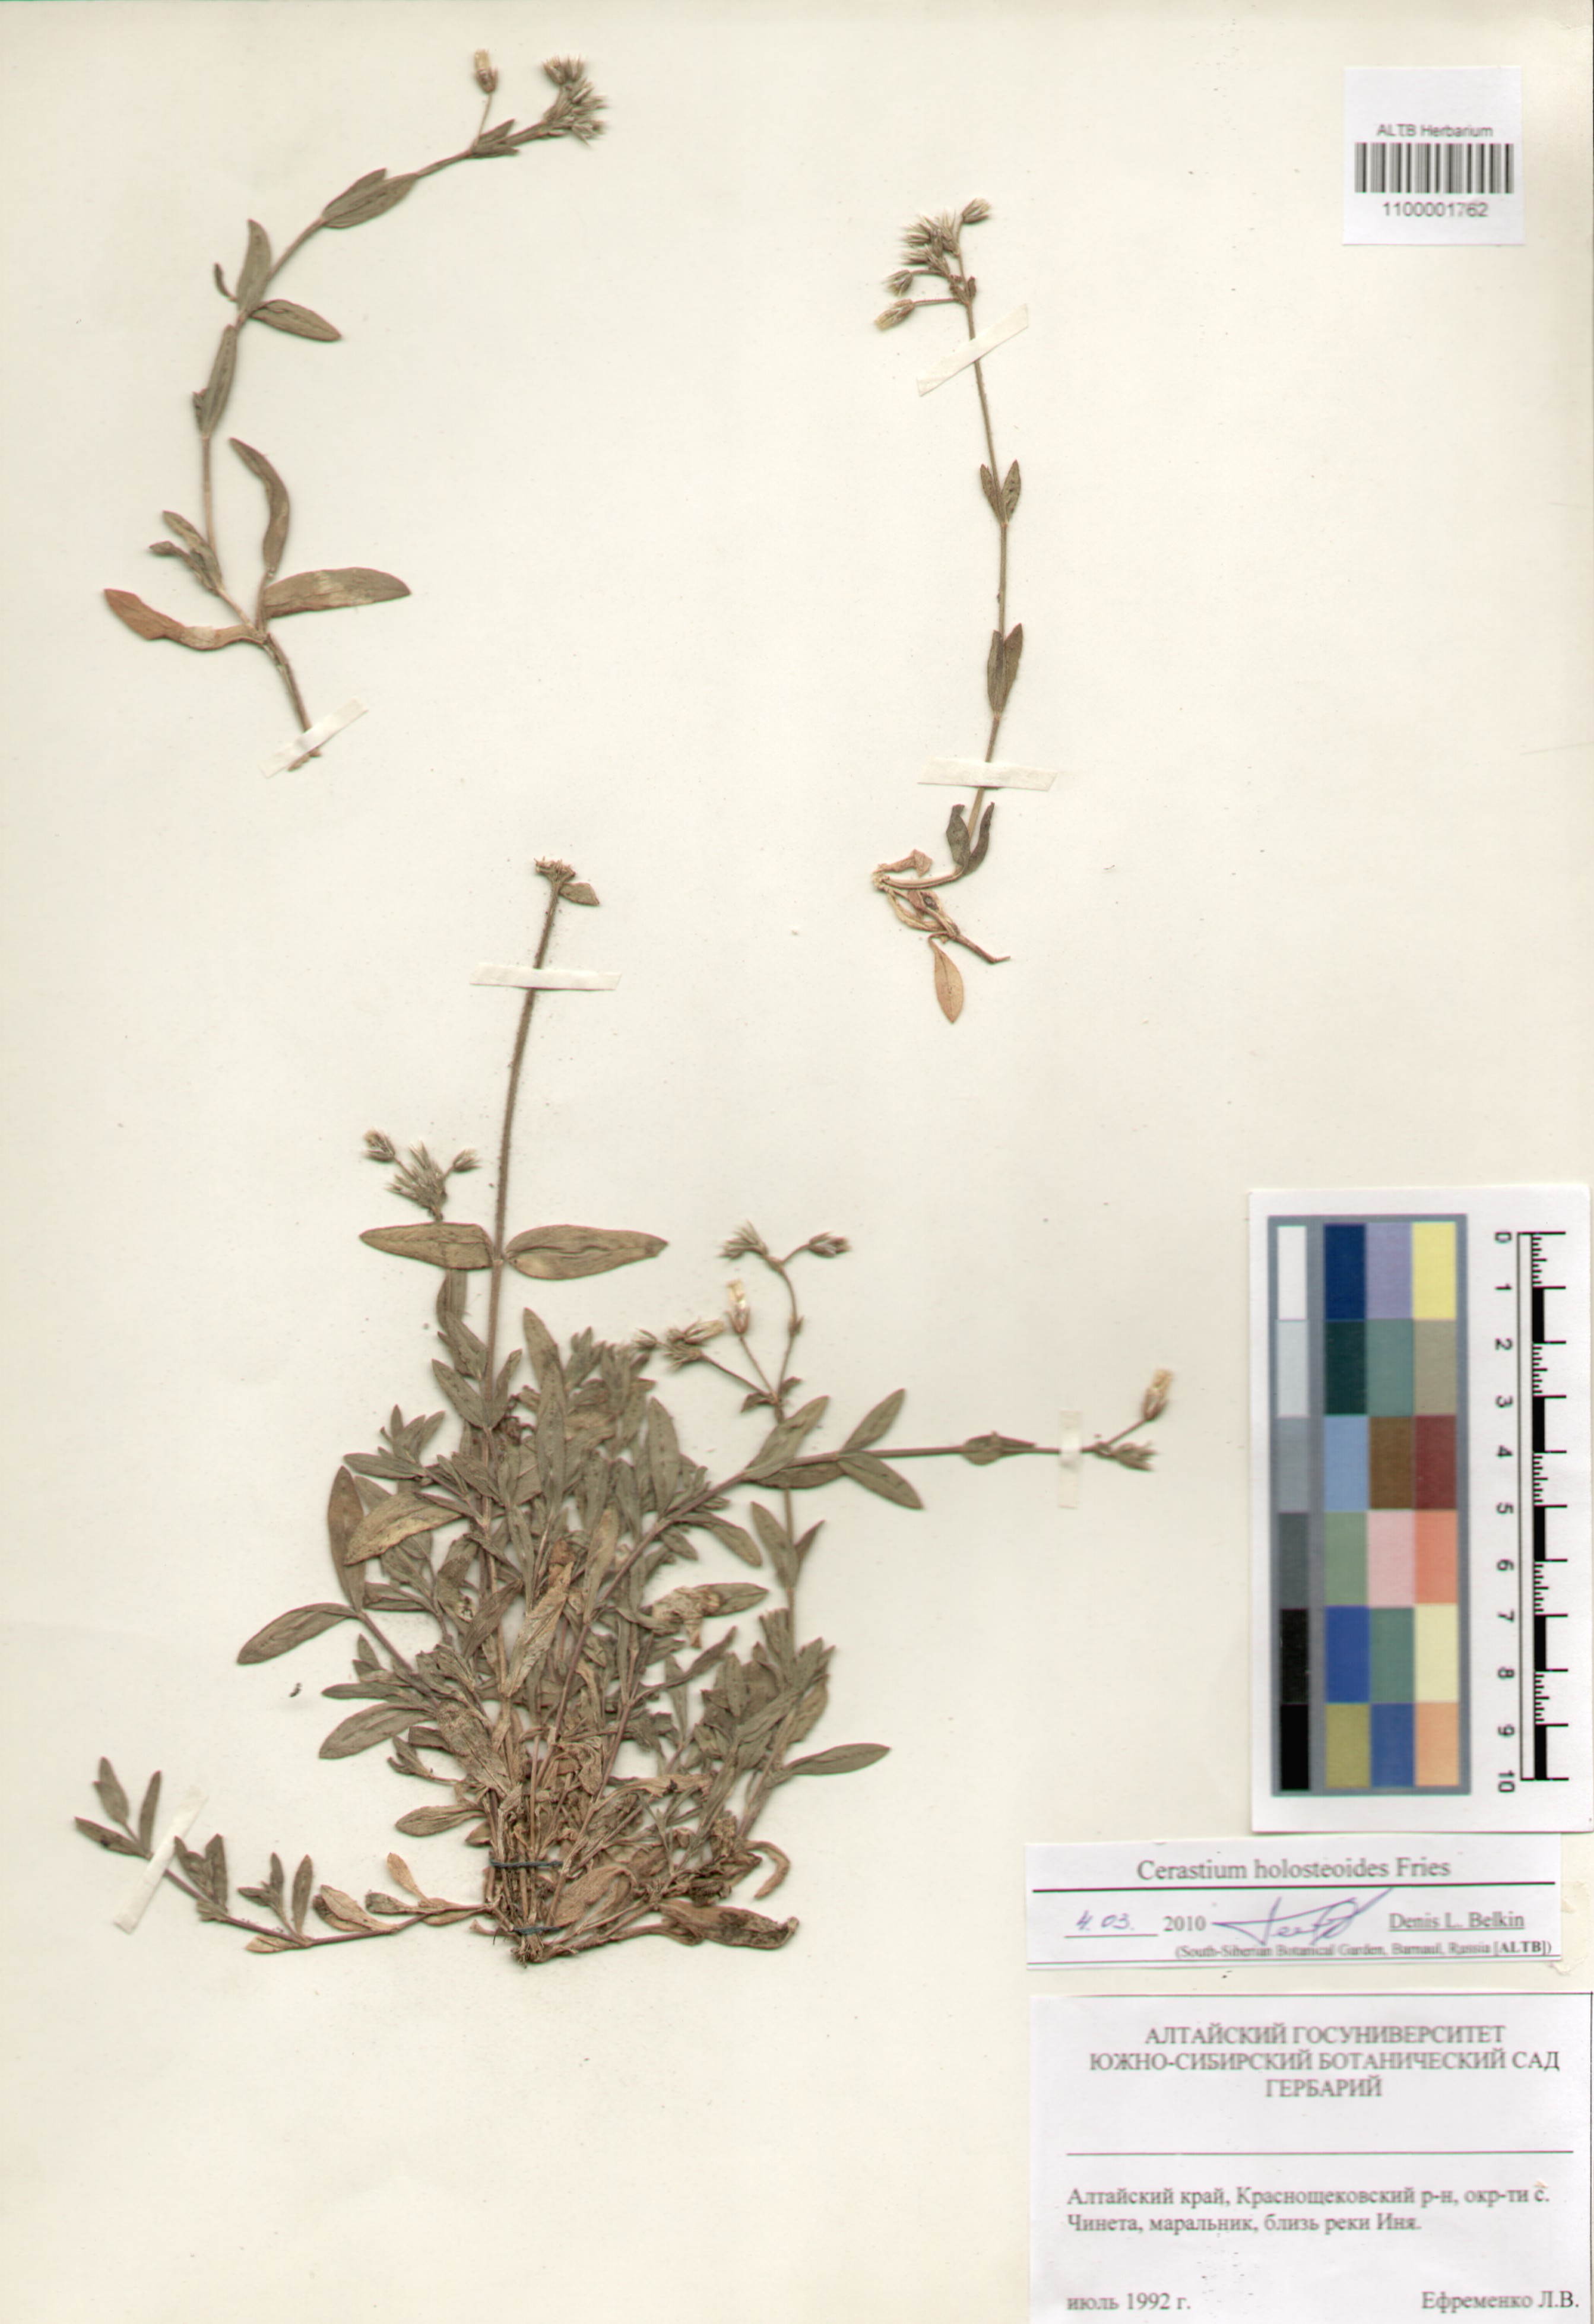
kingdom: Plantae
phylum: Tracheophyta
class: Magnoliopsida
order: Caryophyllales
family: Caryophyllaceae
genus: Cerastium
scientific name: Cerastium holosteoides
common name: Big chickweed
